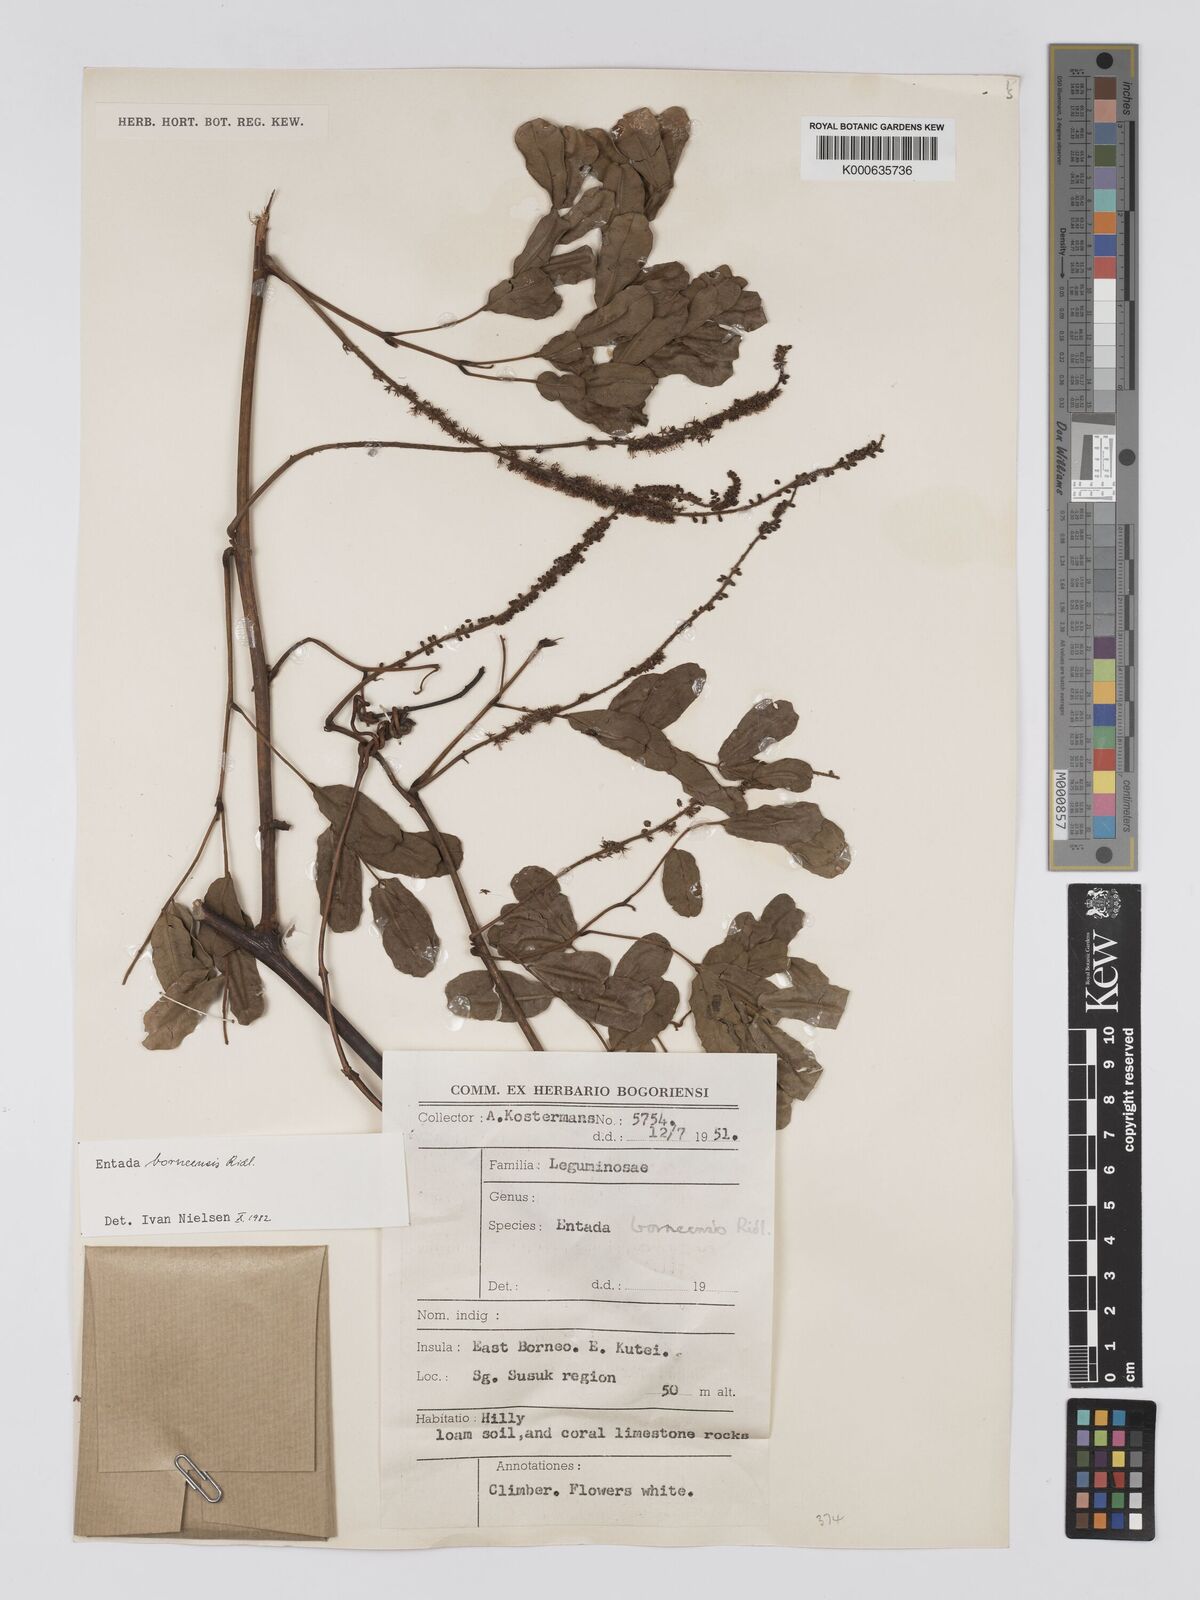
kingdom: Plantae
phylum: Tracheophyta
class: Magnoliopsida
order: Fabales
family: Fabaceae
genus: Entada
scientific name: Entada borneensis
